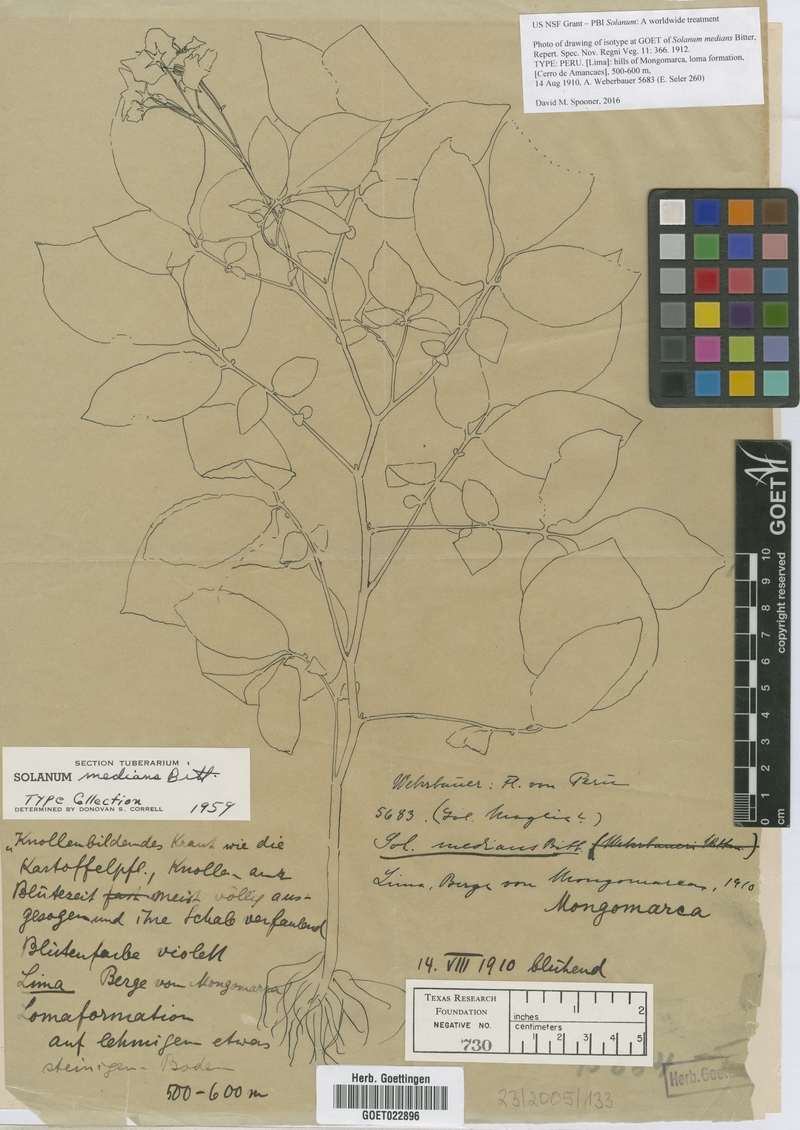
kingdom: Plantae
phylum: Tracheophyta
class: Magnoliopsida
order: Solanales
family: Solanaceae
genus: Solanum
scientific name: Solanum medians
